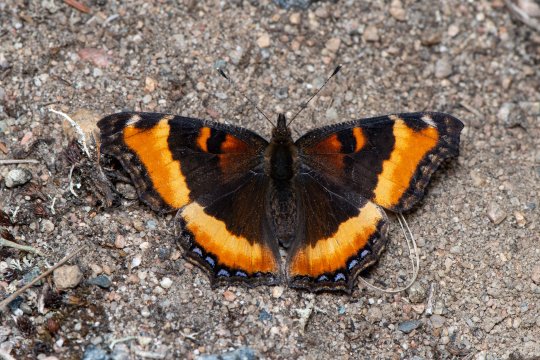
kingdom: Animalia
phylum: Arthropoda
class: Insecta
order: Lepidoptera
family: Nymphalidae
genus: Aglais
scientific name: Aglais milberti
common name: Milbert's Tortoiseshell
